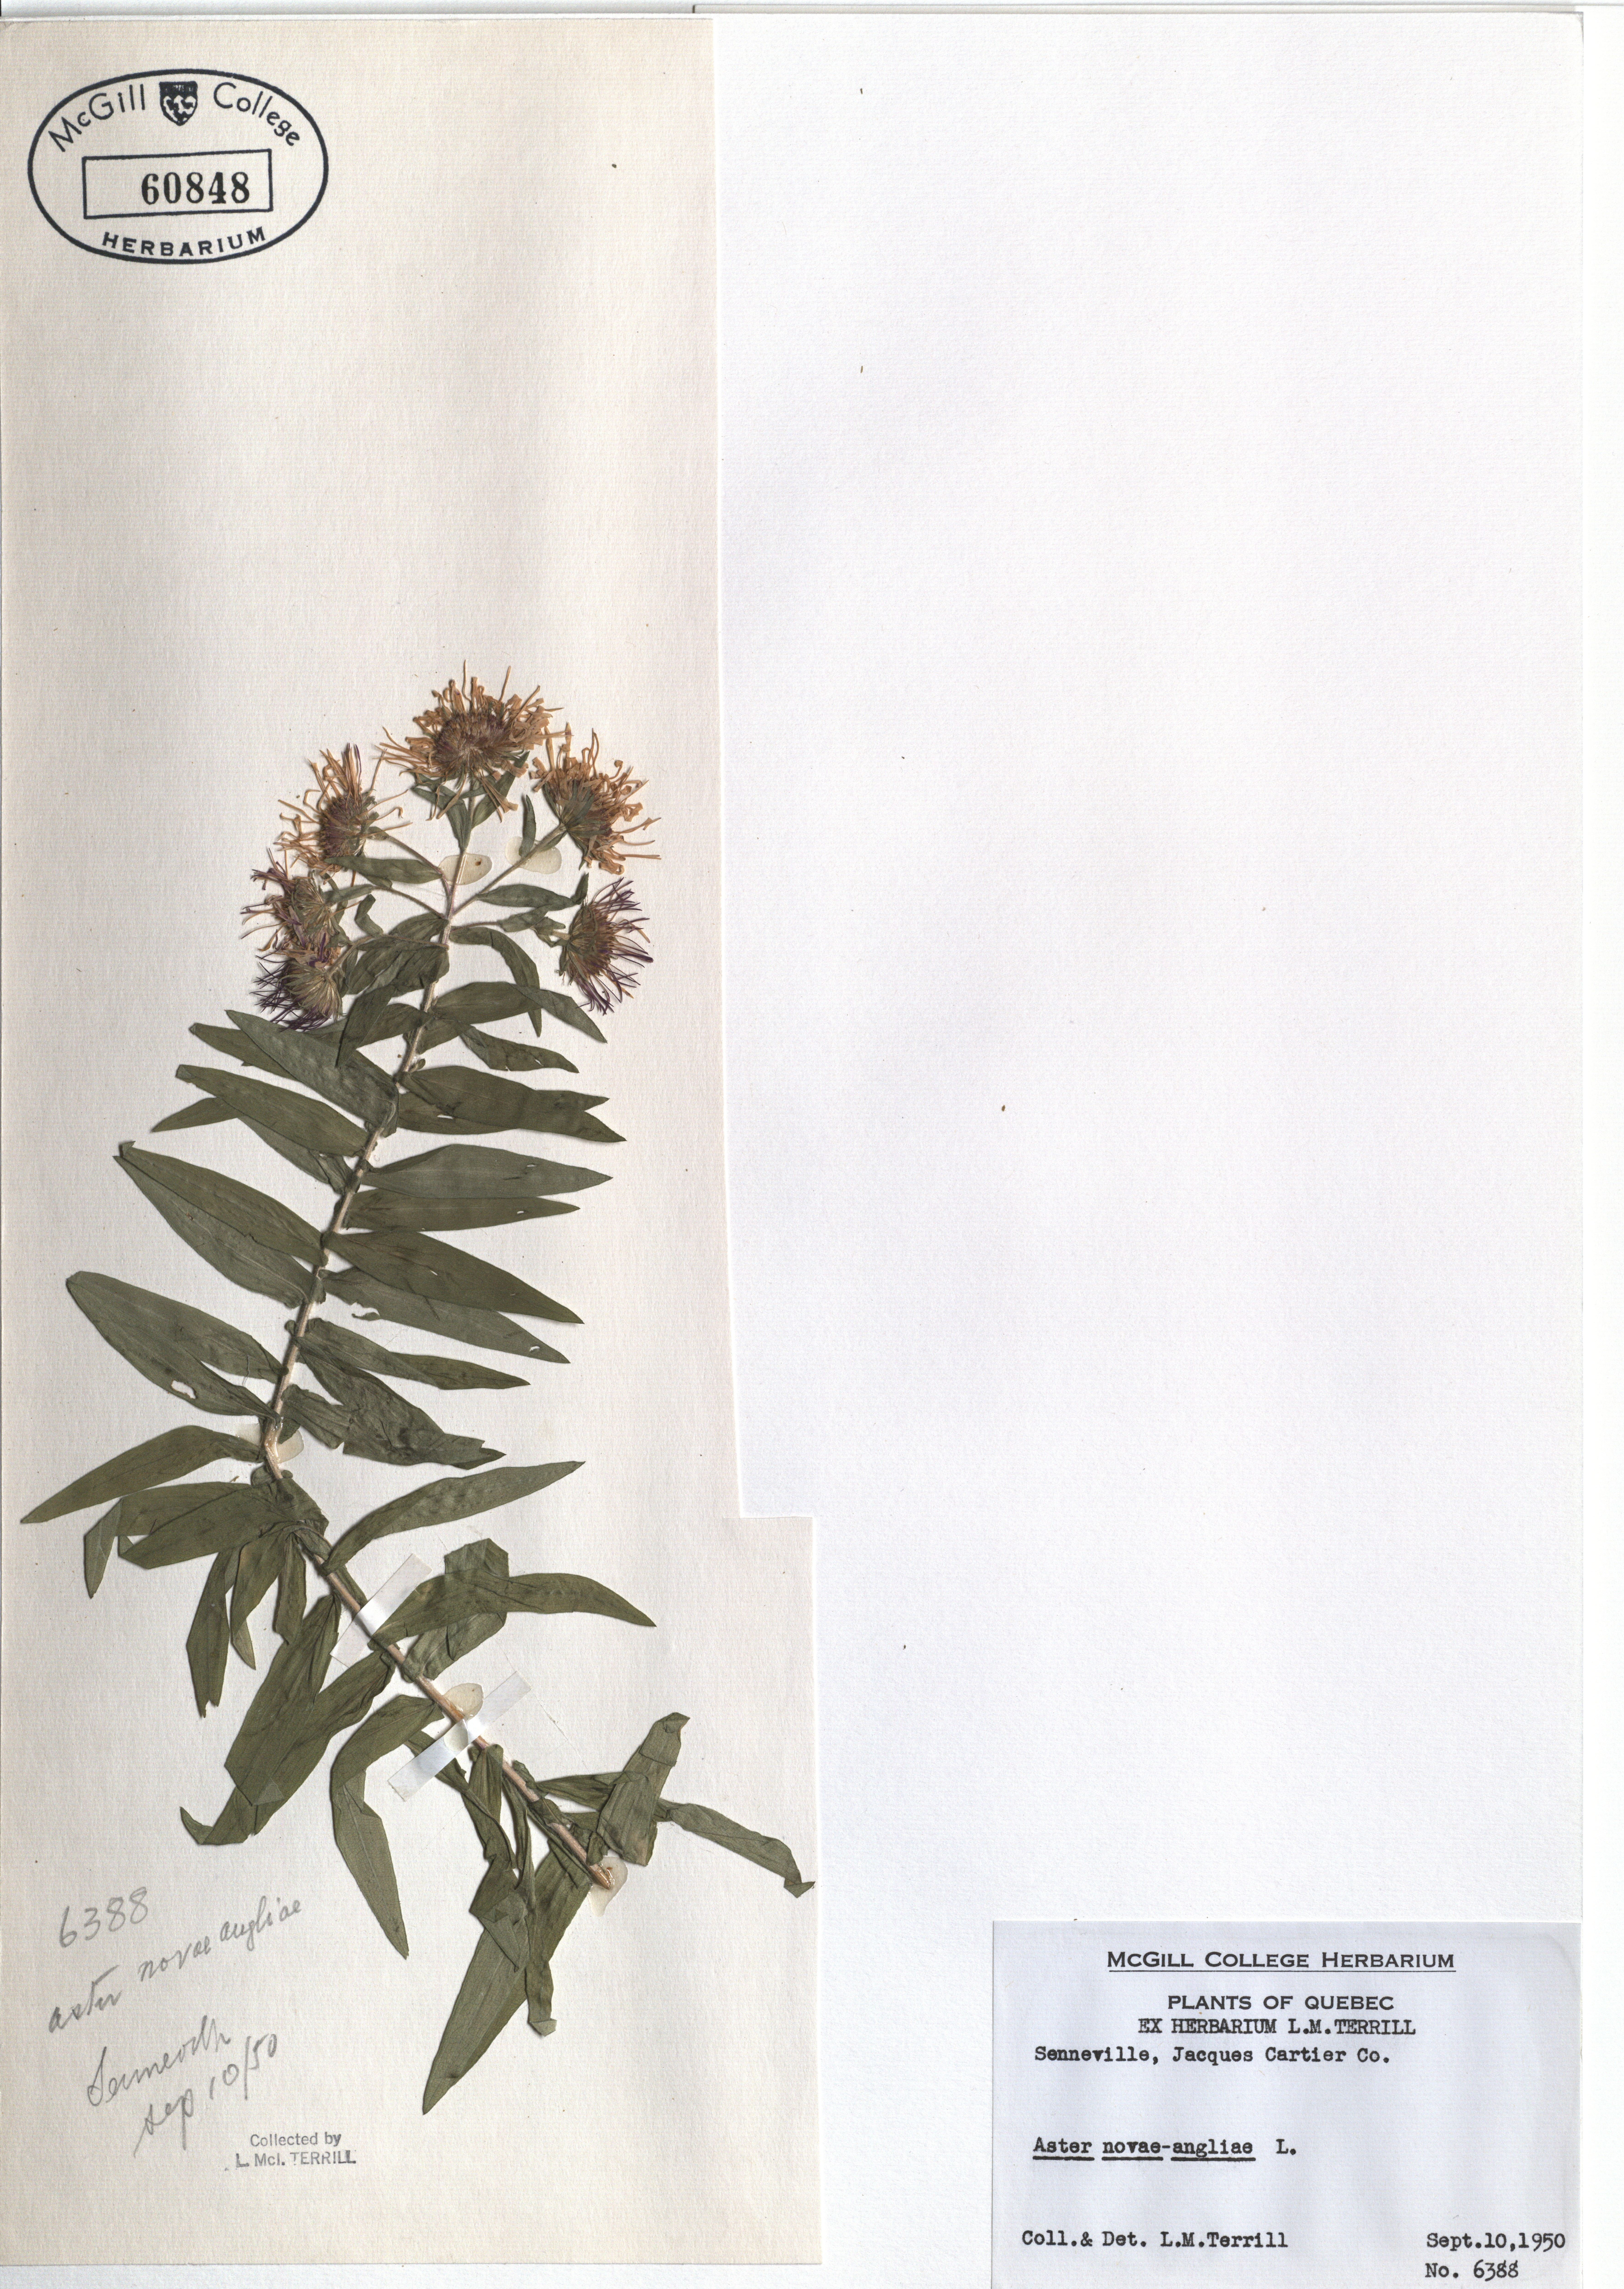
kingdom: Plantae
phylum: Tracheophyta
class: Magnoliopsida
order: Asterales
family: Asteraceae
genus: Symphyotrichum
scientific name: Symphyotrichum novae-angliae
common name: Michaelmas daisy
